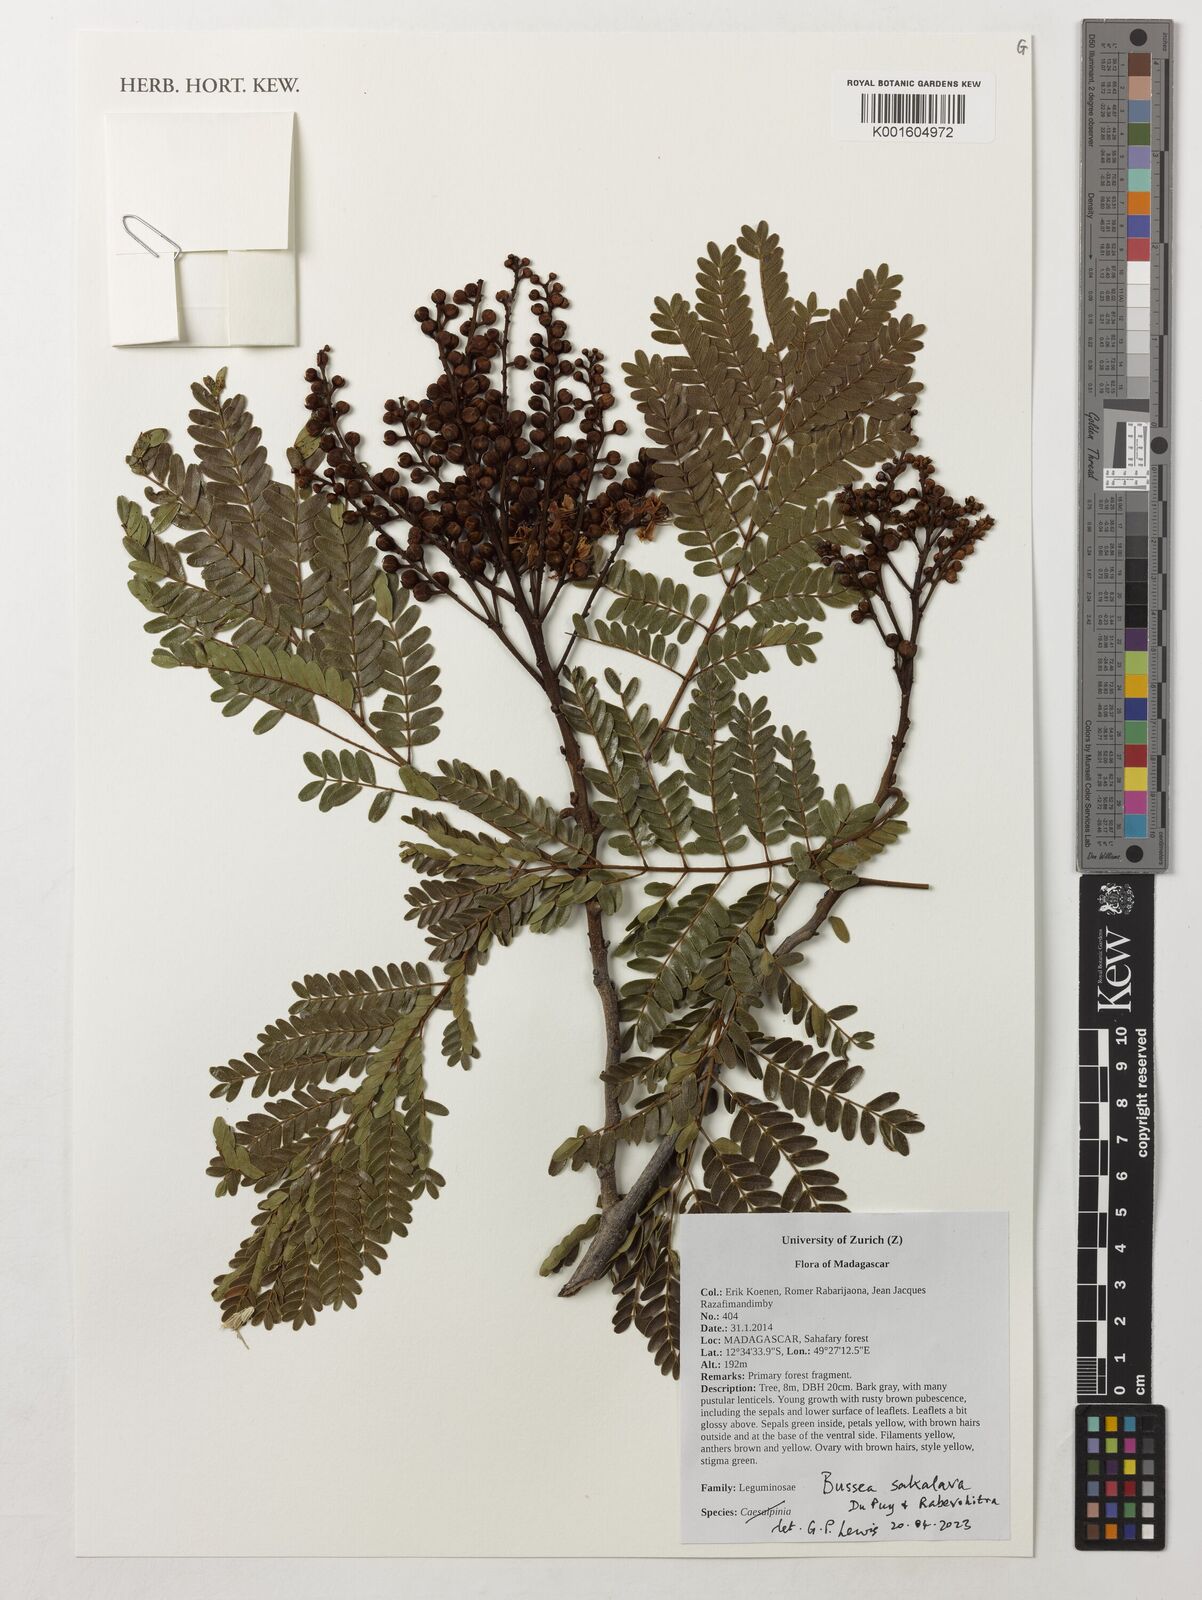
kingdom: Plantae
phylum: Tracheophyta
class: Magnoliopsida
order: Fabales
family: Fabaceae
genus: Bussea
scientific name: Bussea sakalava
